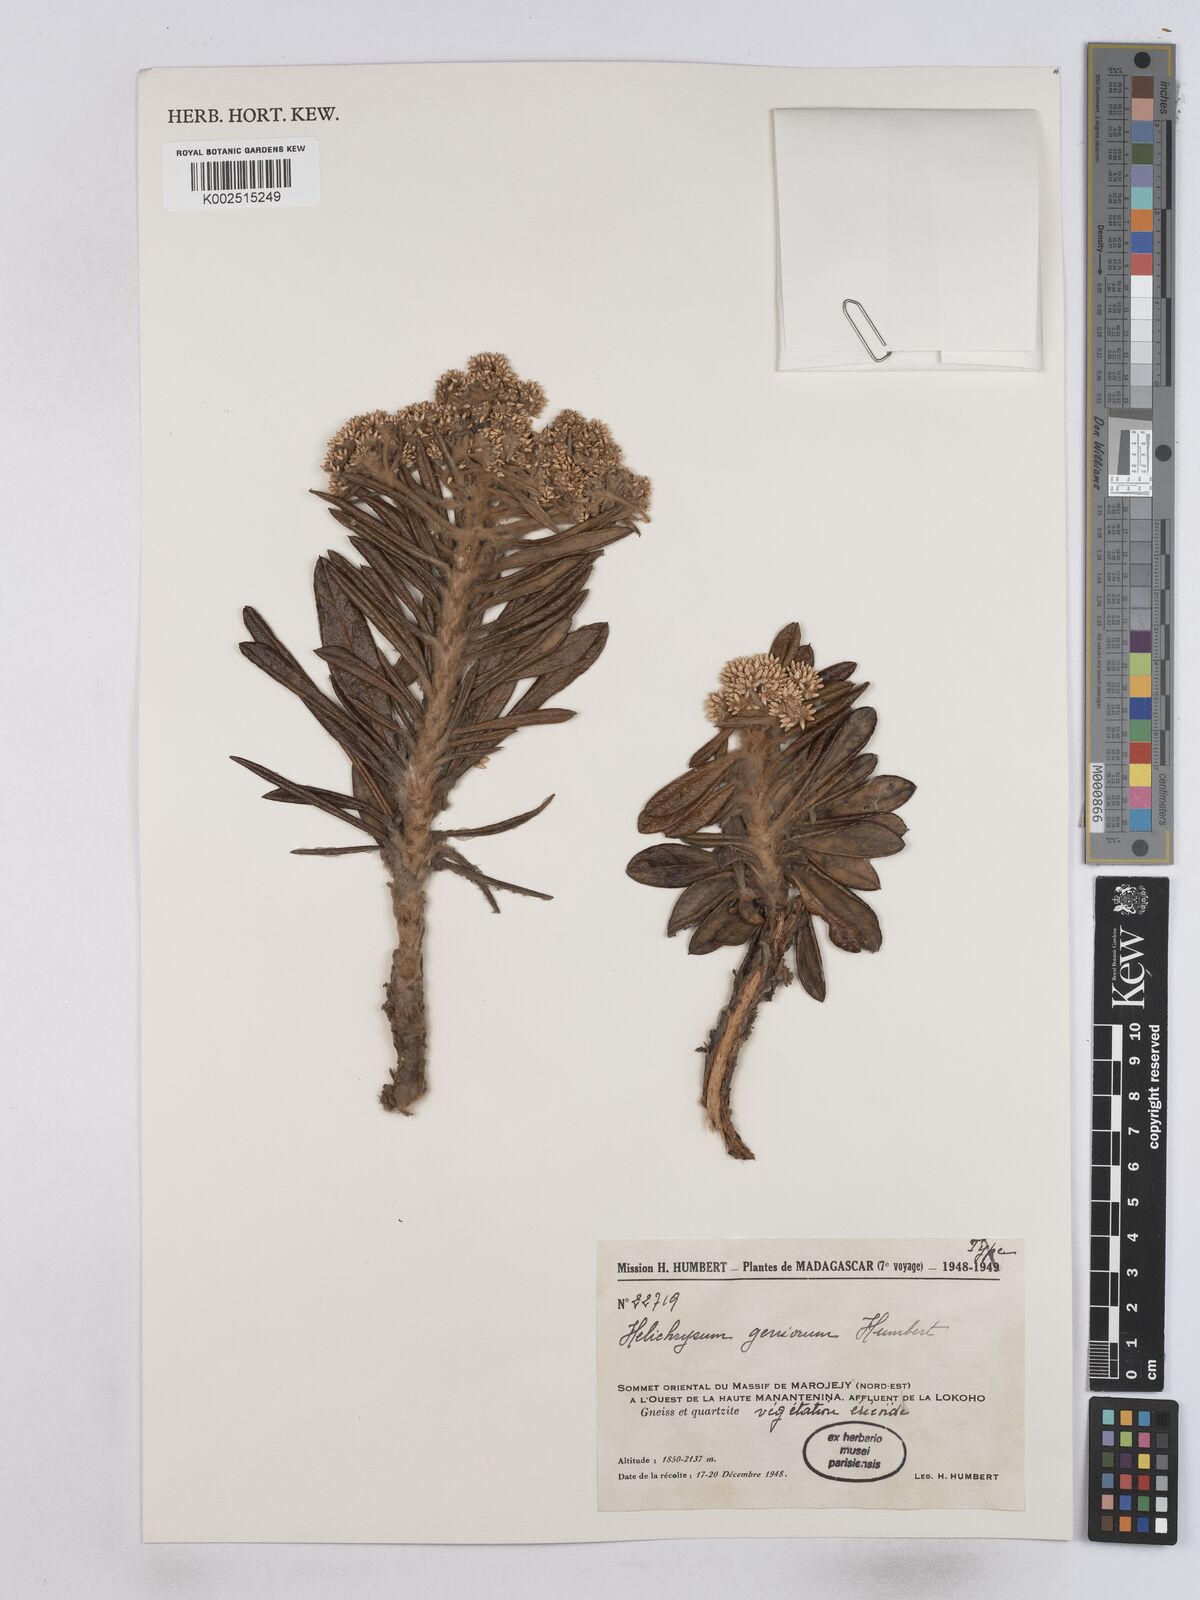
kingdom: Plantae
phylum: Tracheophyta
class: Magnoliopsida
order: Asterales
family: Asteraceae
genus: Helichrysum
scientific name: Helichrysum geniorum
